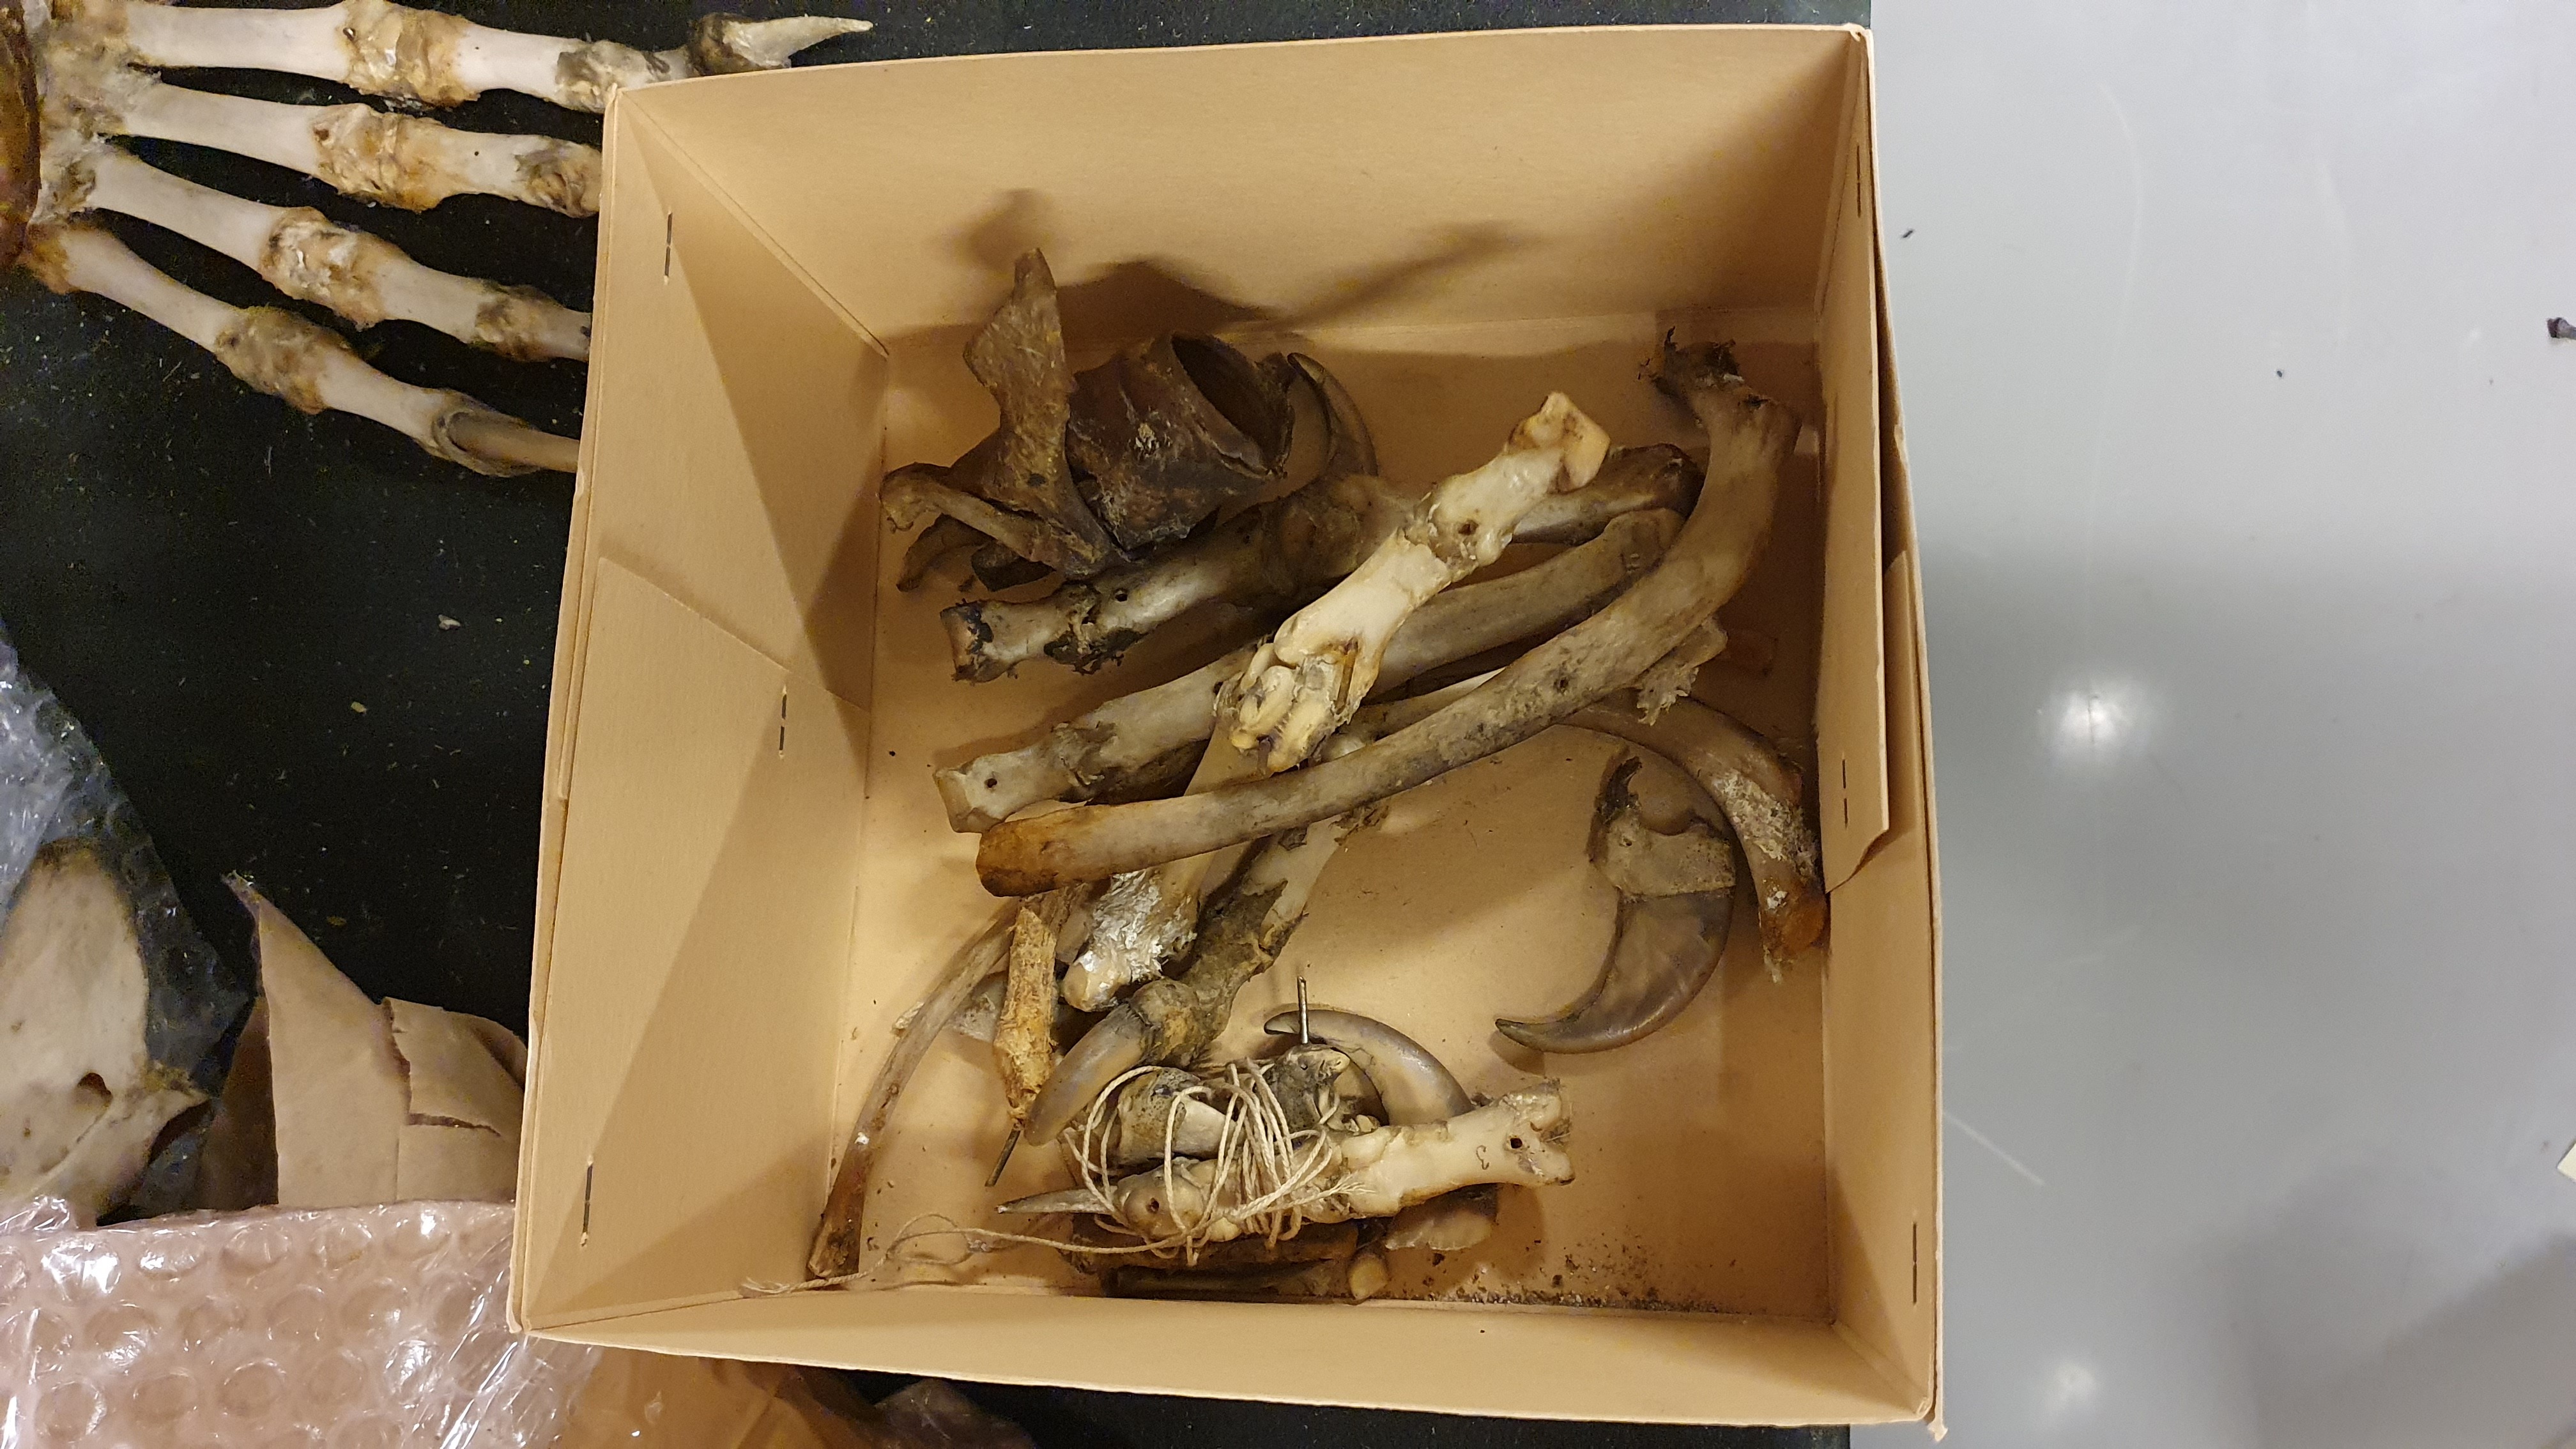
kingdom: Animalia
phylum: Chordata
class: Mammalia
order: Carnivora
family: Ursidae
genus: Ursus
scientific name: Ursus arctos
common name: Brown bear
